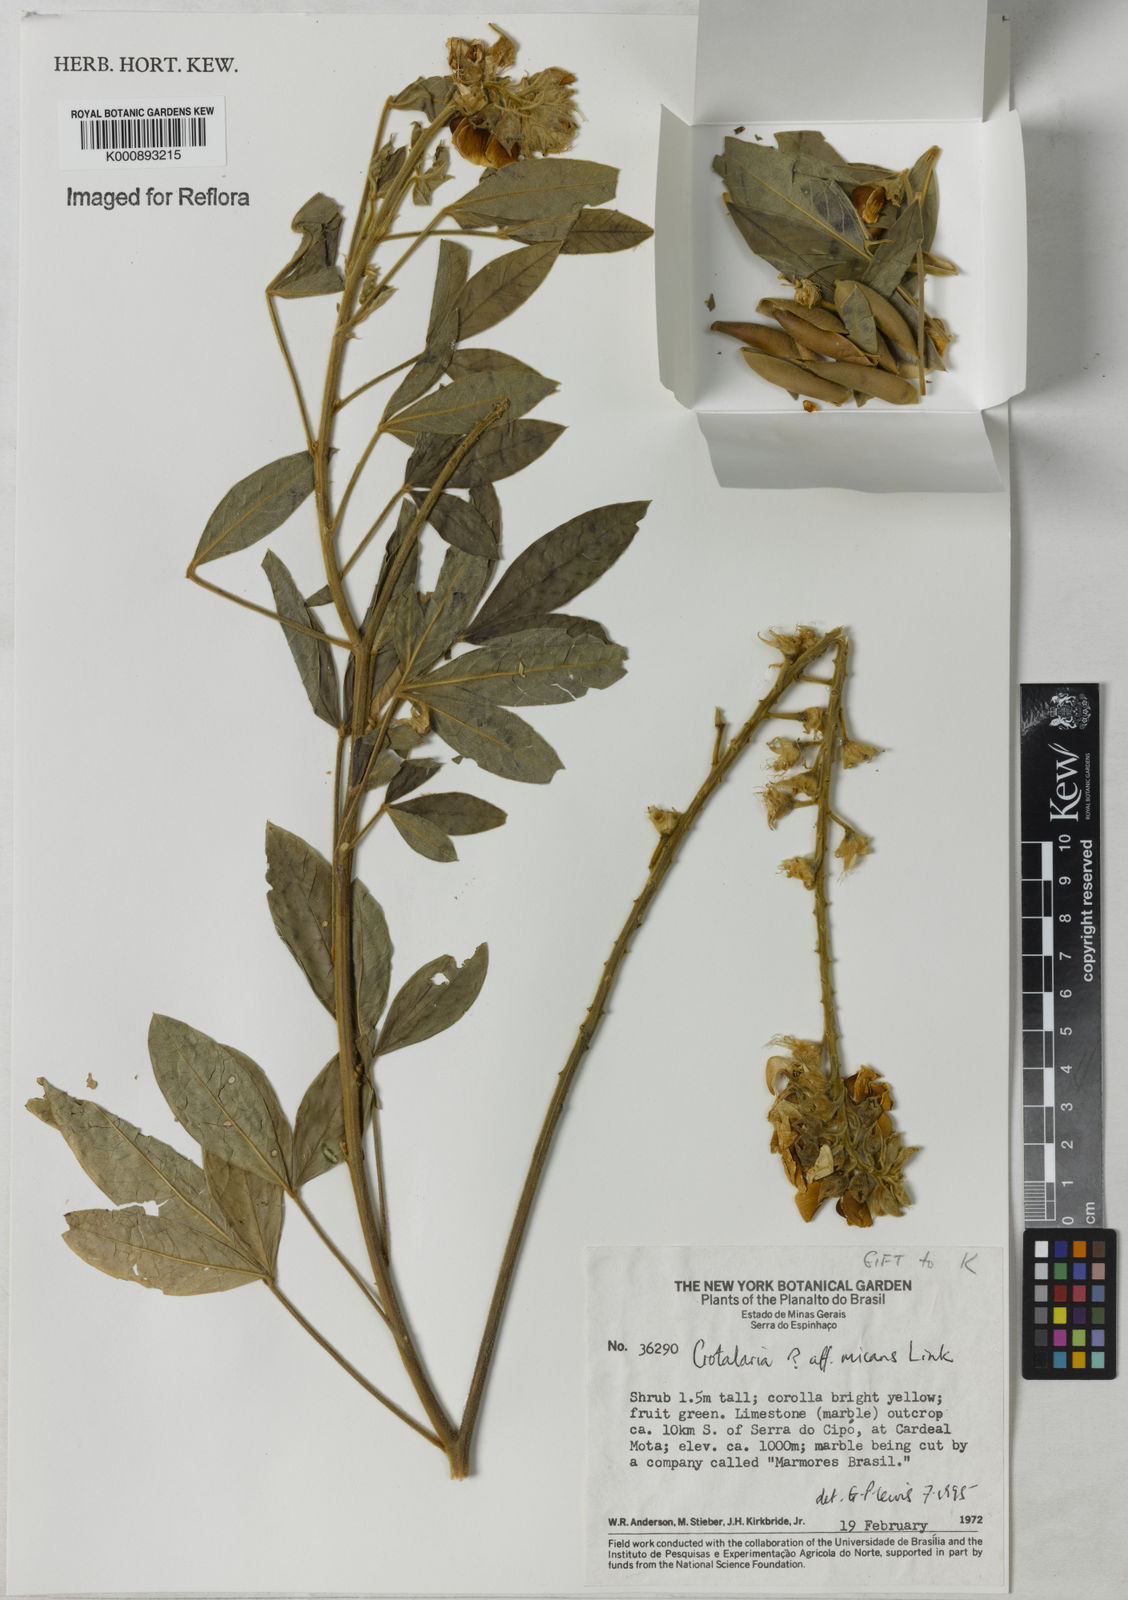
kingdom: Plantae
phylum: Tracheophyta
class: Magnoliopsida
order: Fabales
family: Fabaceae
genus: Crotalaria
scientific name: Crotalaria micans
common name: Caracas rattlebox
